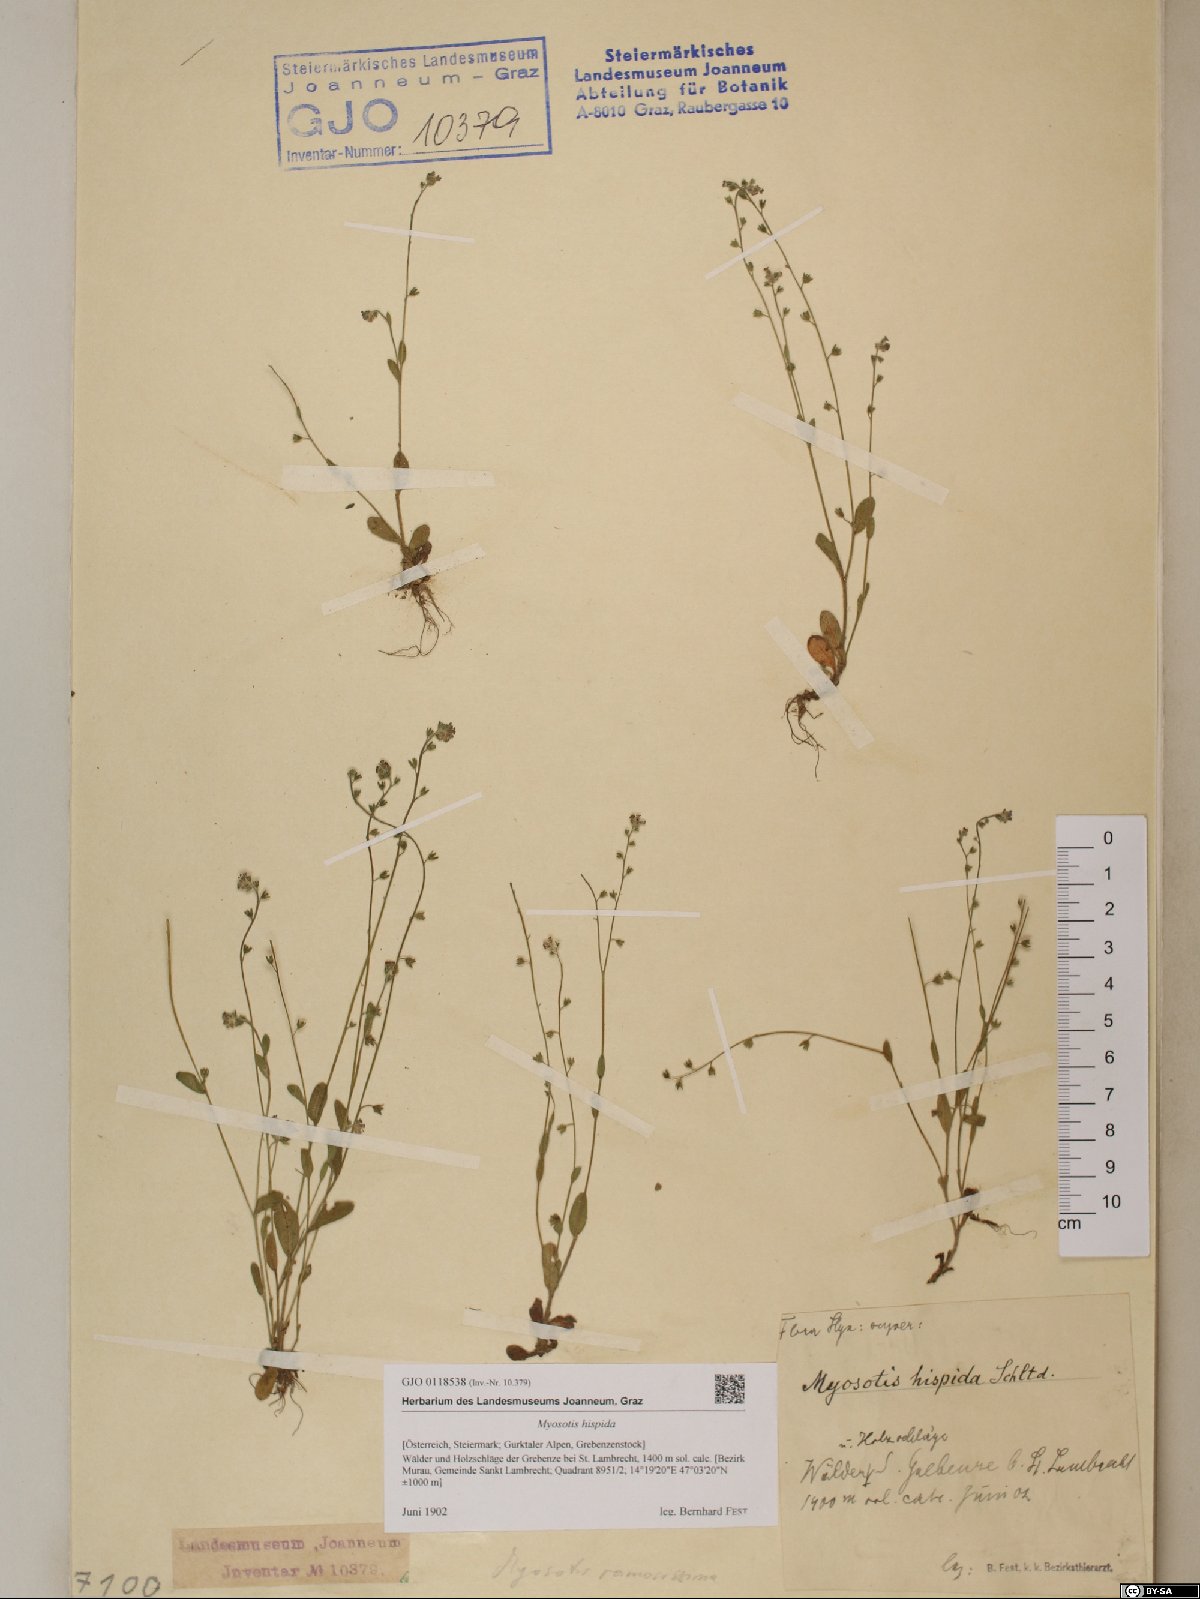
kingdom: Plantae
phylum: Tracheophyta
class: Magnoliopsida
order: Boraginales
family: Boraginaceae
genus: Myosotis
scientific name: Myosotis ramosissima
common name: Early forget-me-not
